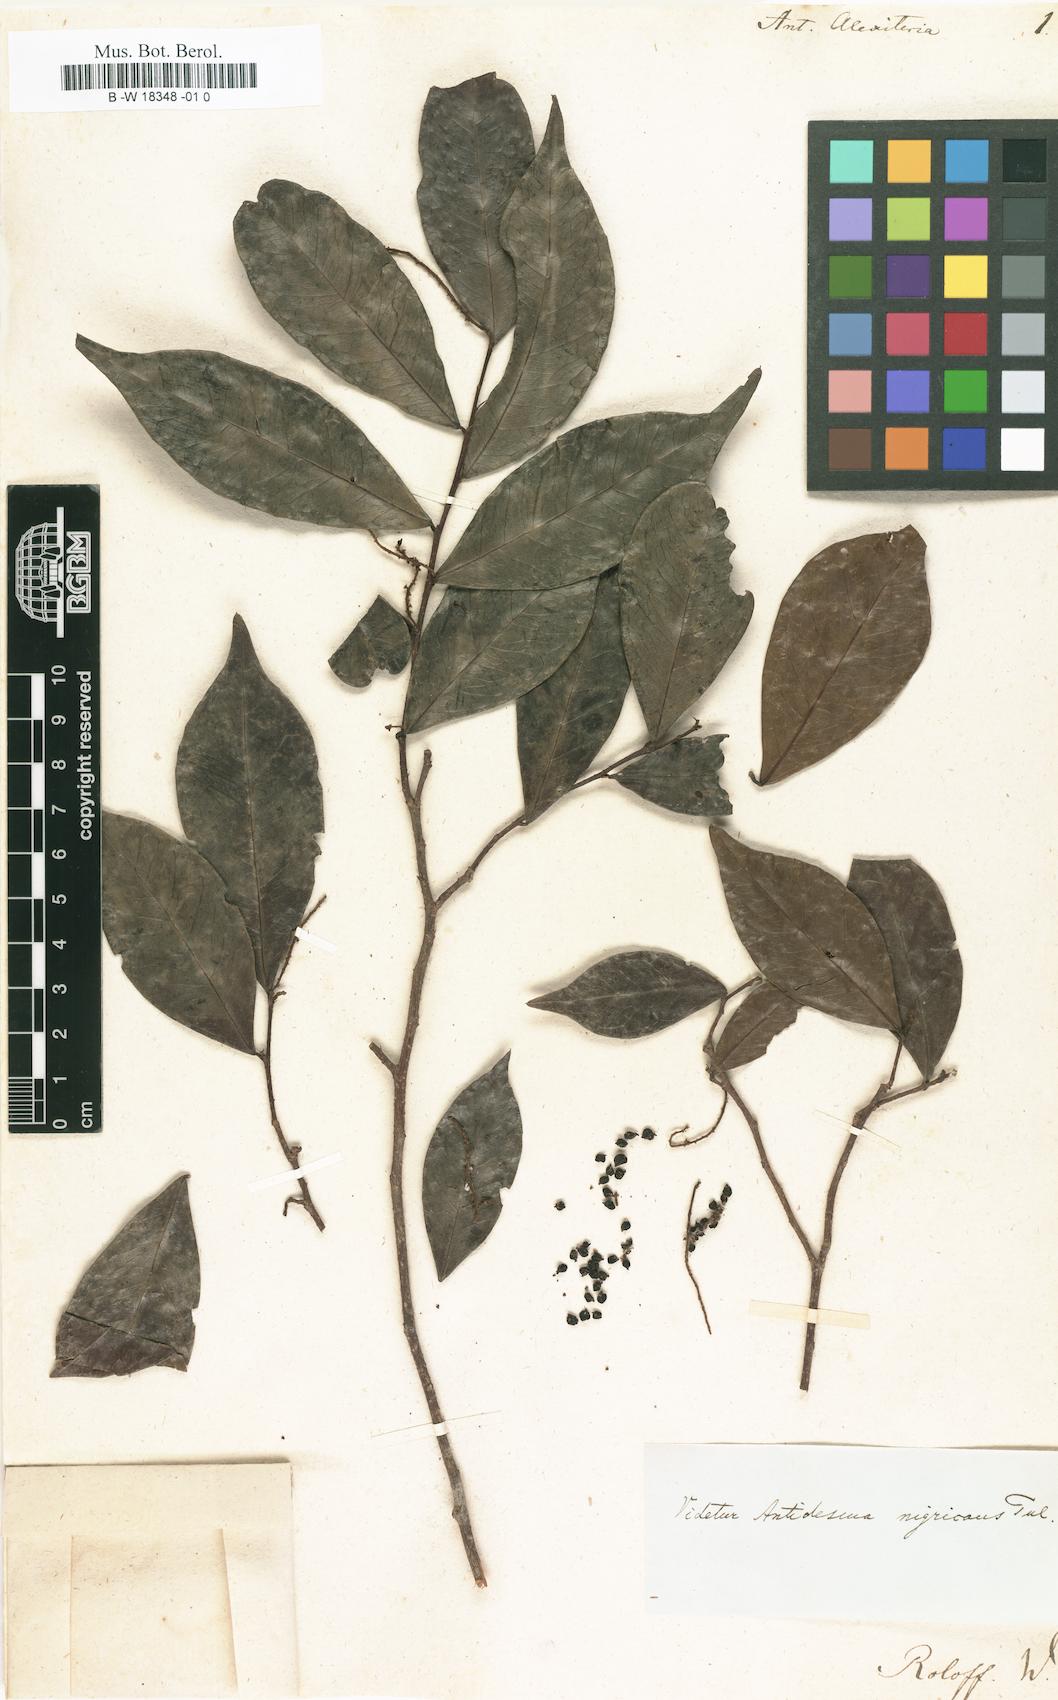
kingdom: Plantae
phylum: Tracheophyta
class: Magnoliopsida
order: Malpighiales
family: Phyllanthaceae
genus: Antidesma
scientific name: Antidesma alexiteria
